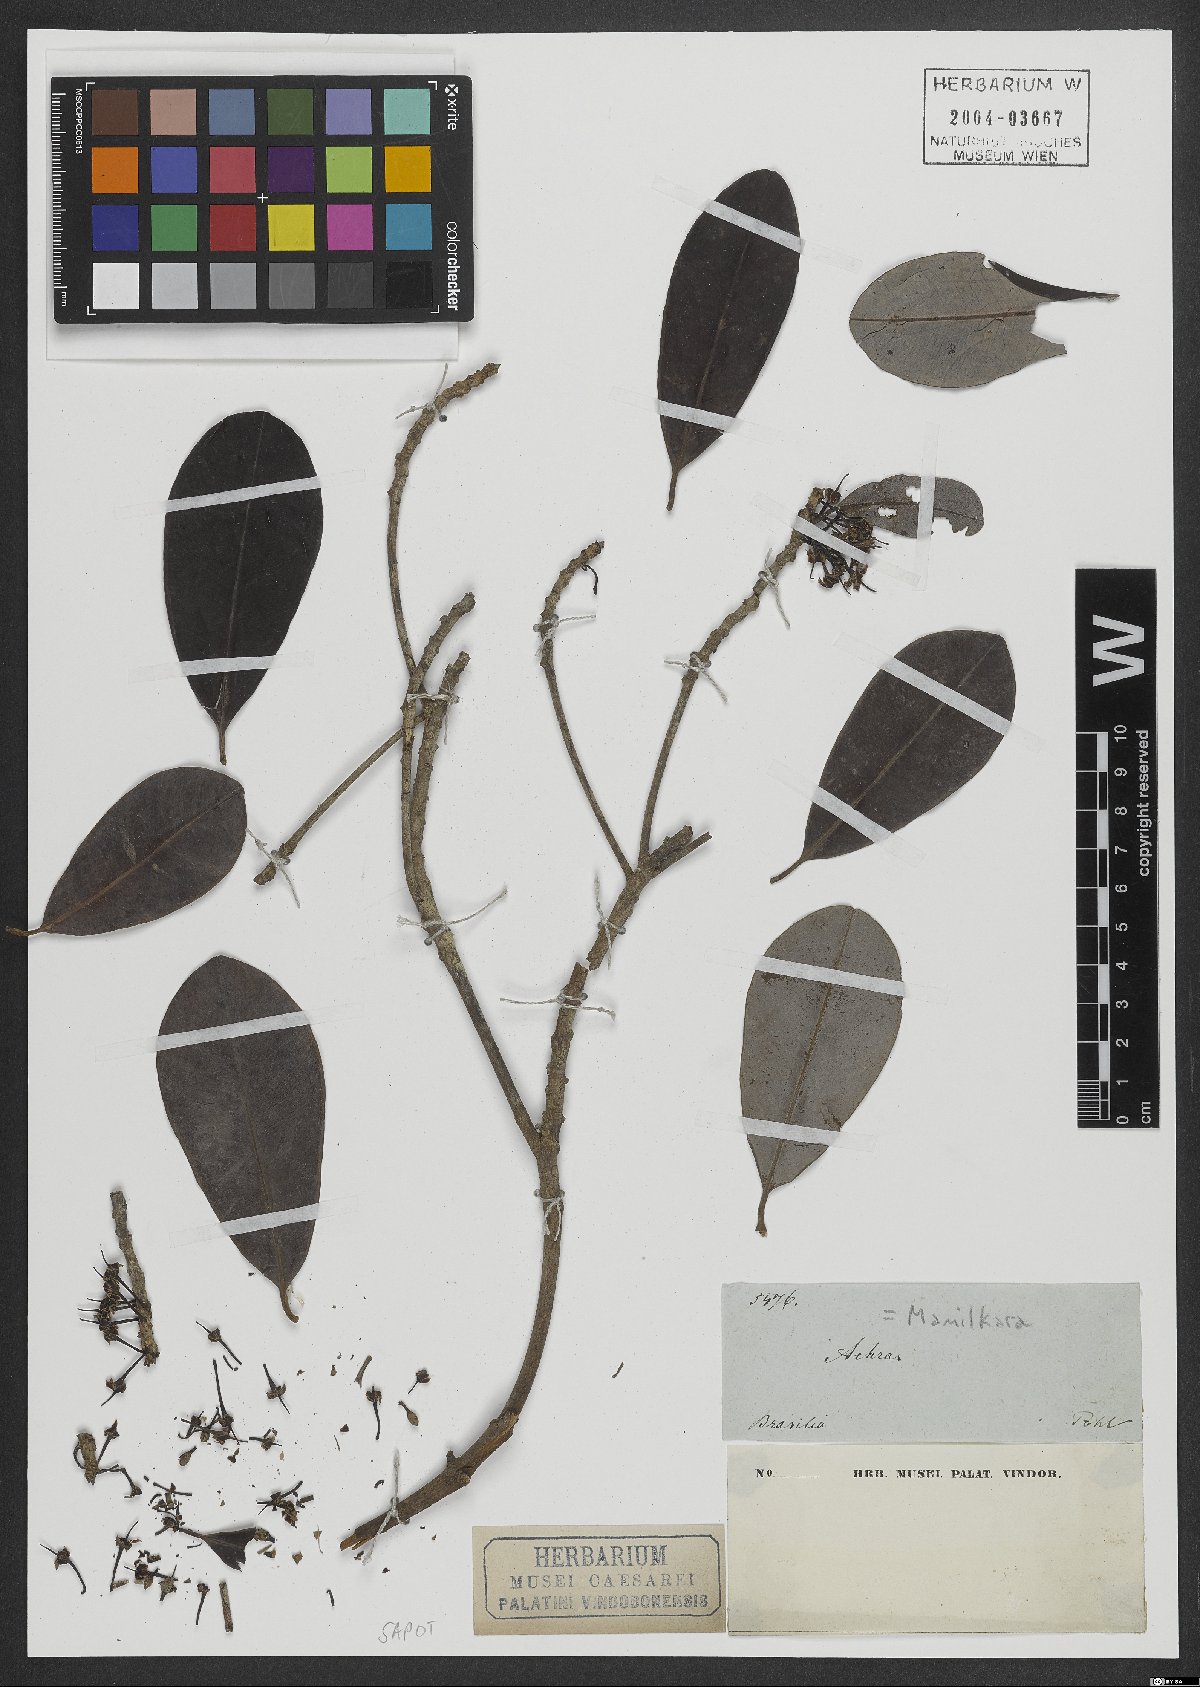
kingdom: Plantae
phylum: Tracheophyta
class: Magnoliopsida
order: Ericales
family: Sapotaceae
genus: Manilkara
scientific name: Manilkara
